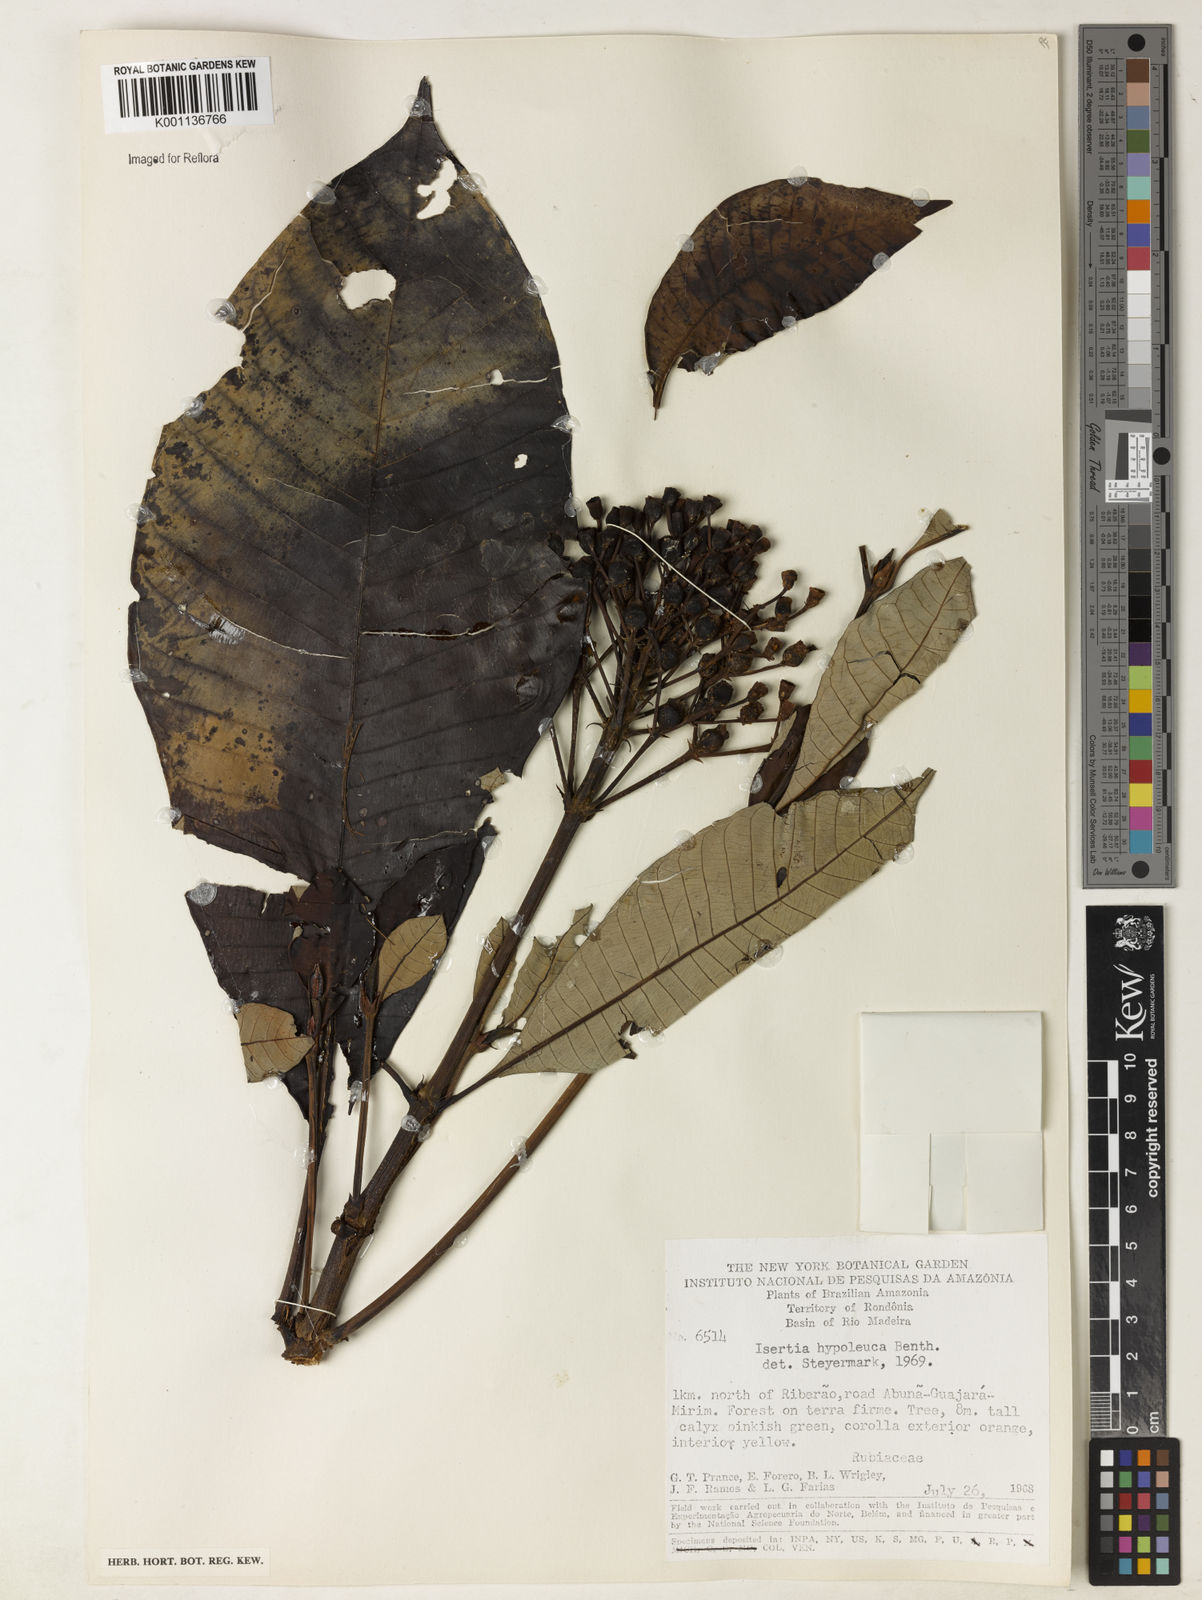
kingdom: Plantae
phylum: Tracheophyta
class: Magnoliopsida
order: Gentianales
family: Rubiaceae
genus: Isertia
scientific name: Isertia hypoleuca
